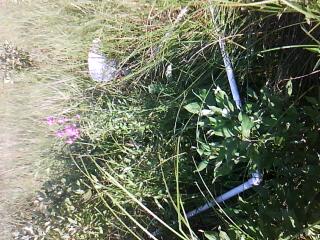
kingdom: Plantae
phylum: Tracheophyta
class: Magnoliopsida
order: Asterales
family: Asteraceae
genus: Rudbeckia
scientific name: Rudbeckia fulgida
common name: Perennial coneflower
